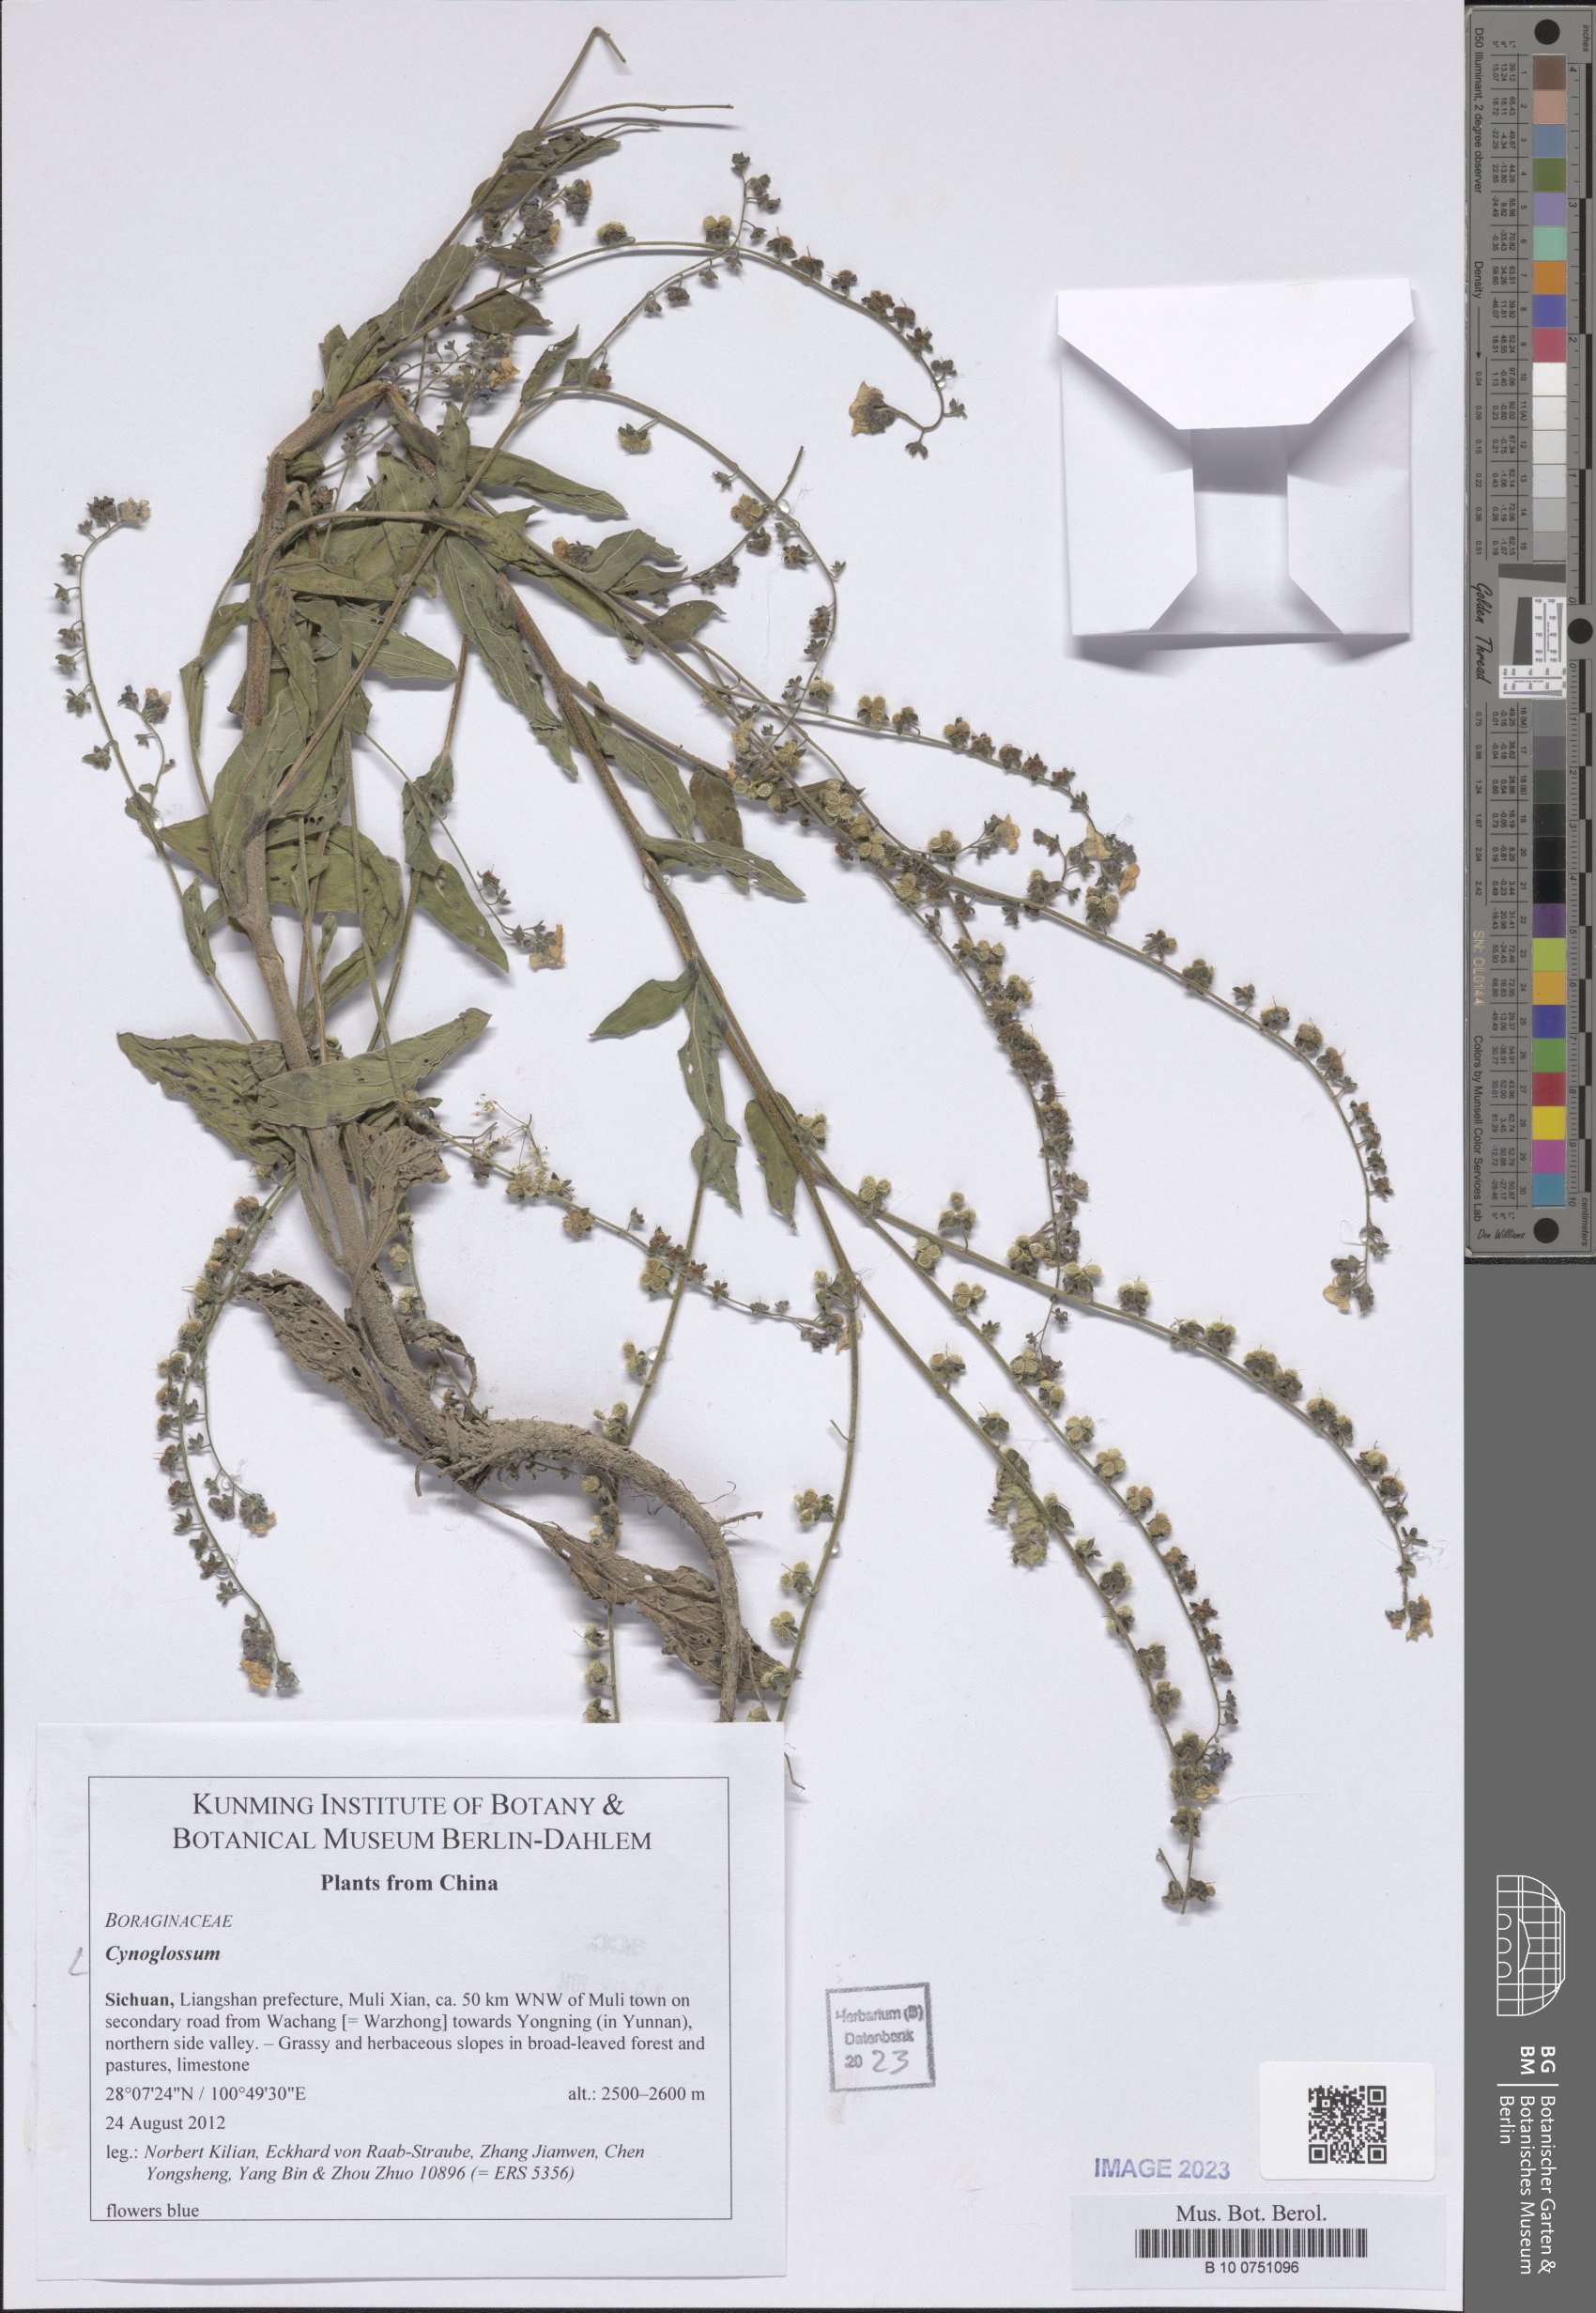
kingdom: Plantae
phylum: Tracheophyta
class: Magnoliopsida
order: Boraginales
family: Boraginaceae
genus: Cynoglossum
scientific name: Cynoglossum
